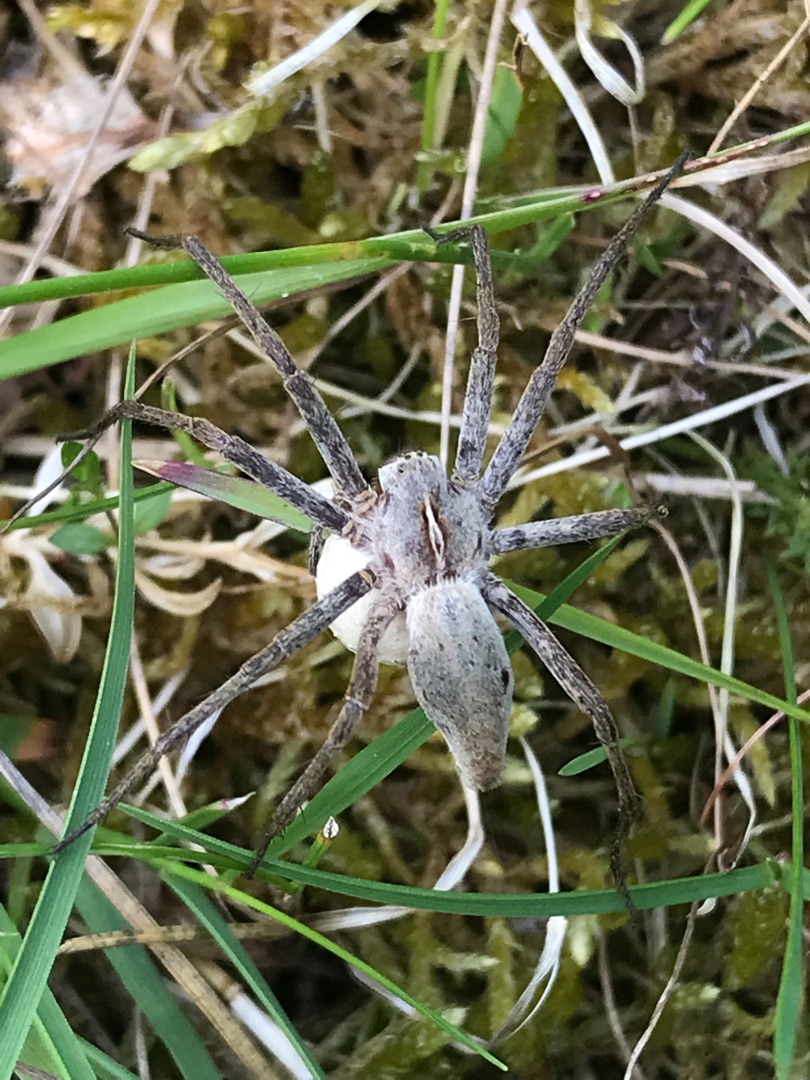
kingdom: Animalia
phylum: Arthropoda
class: Arachnida
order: Araneae
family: Pisauridae
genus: Pisaura
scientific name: Pisaura mirabilis
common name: Almindelig rovedderkop
